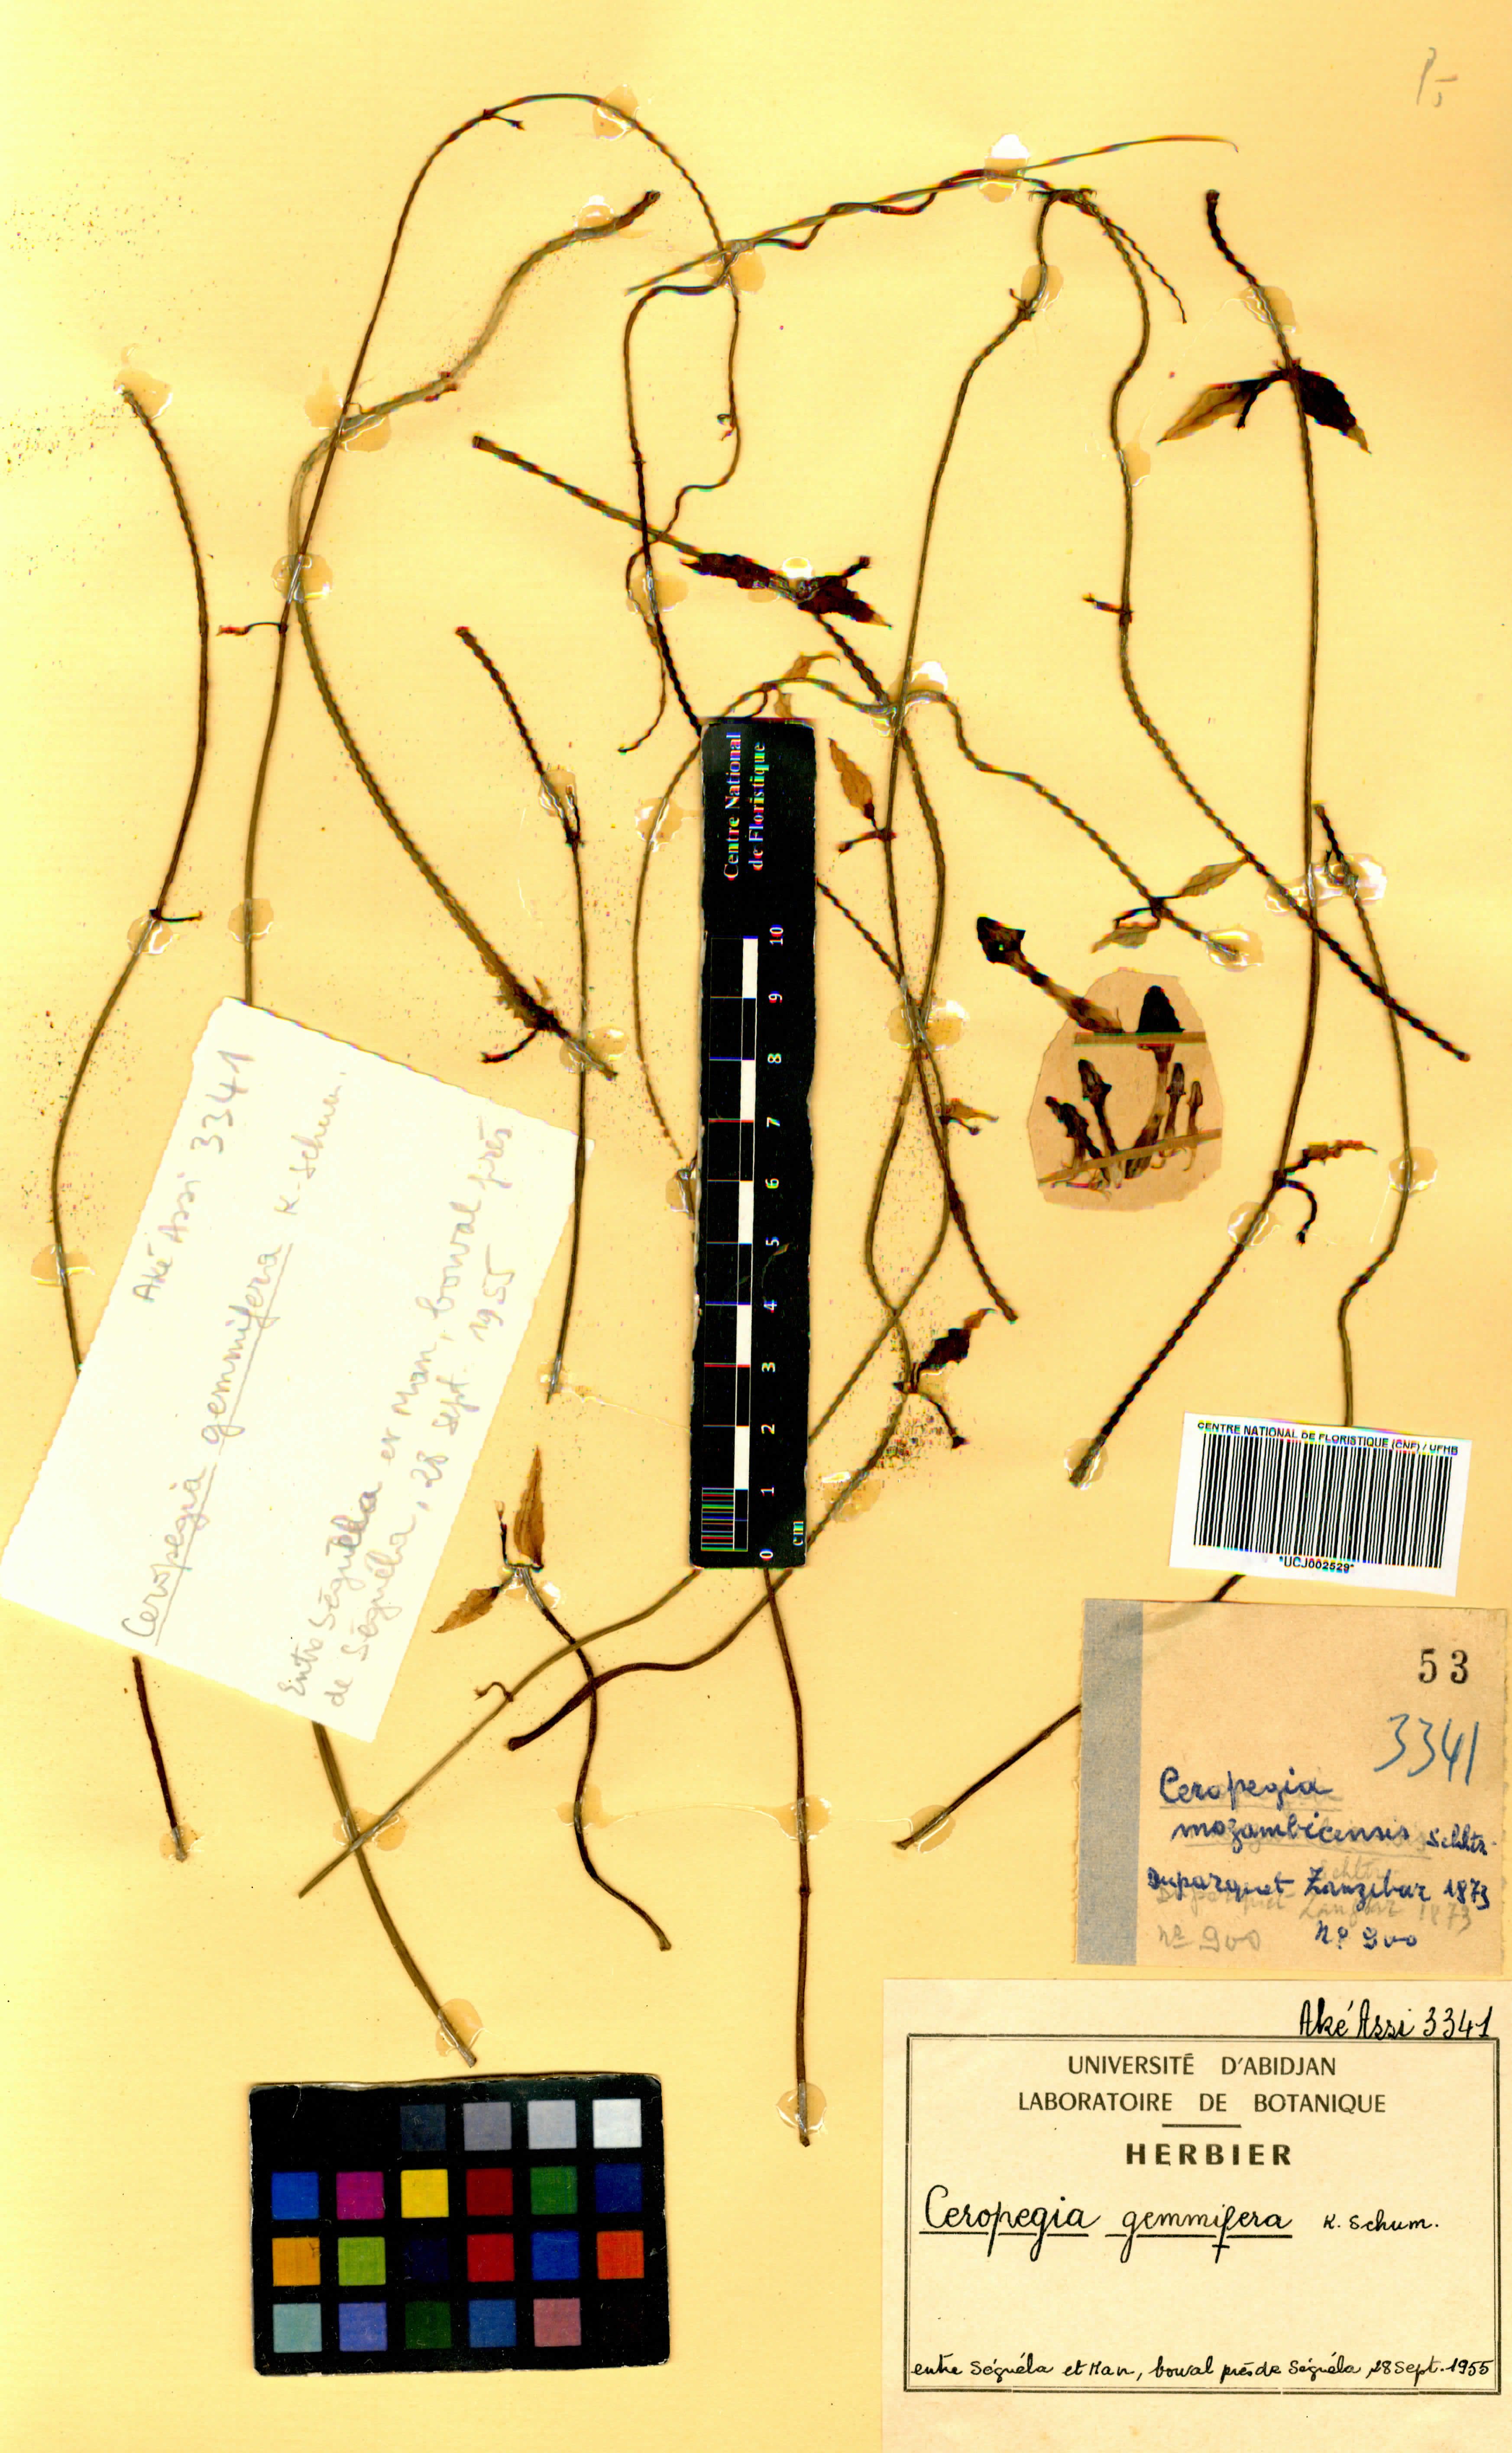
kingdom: Plantae
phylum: Tracheophyta
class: Magnoliopsida
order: Gentianales
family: Apocynaceae
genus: Ceropegia
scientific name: Ceropegia nilotica
